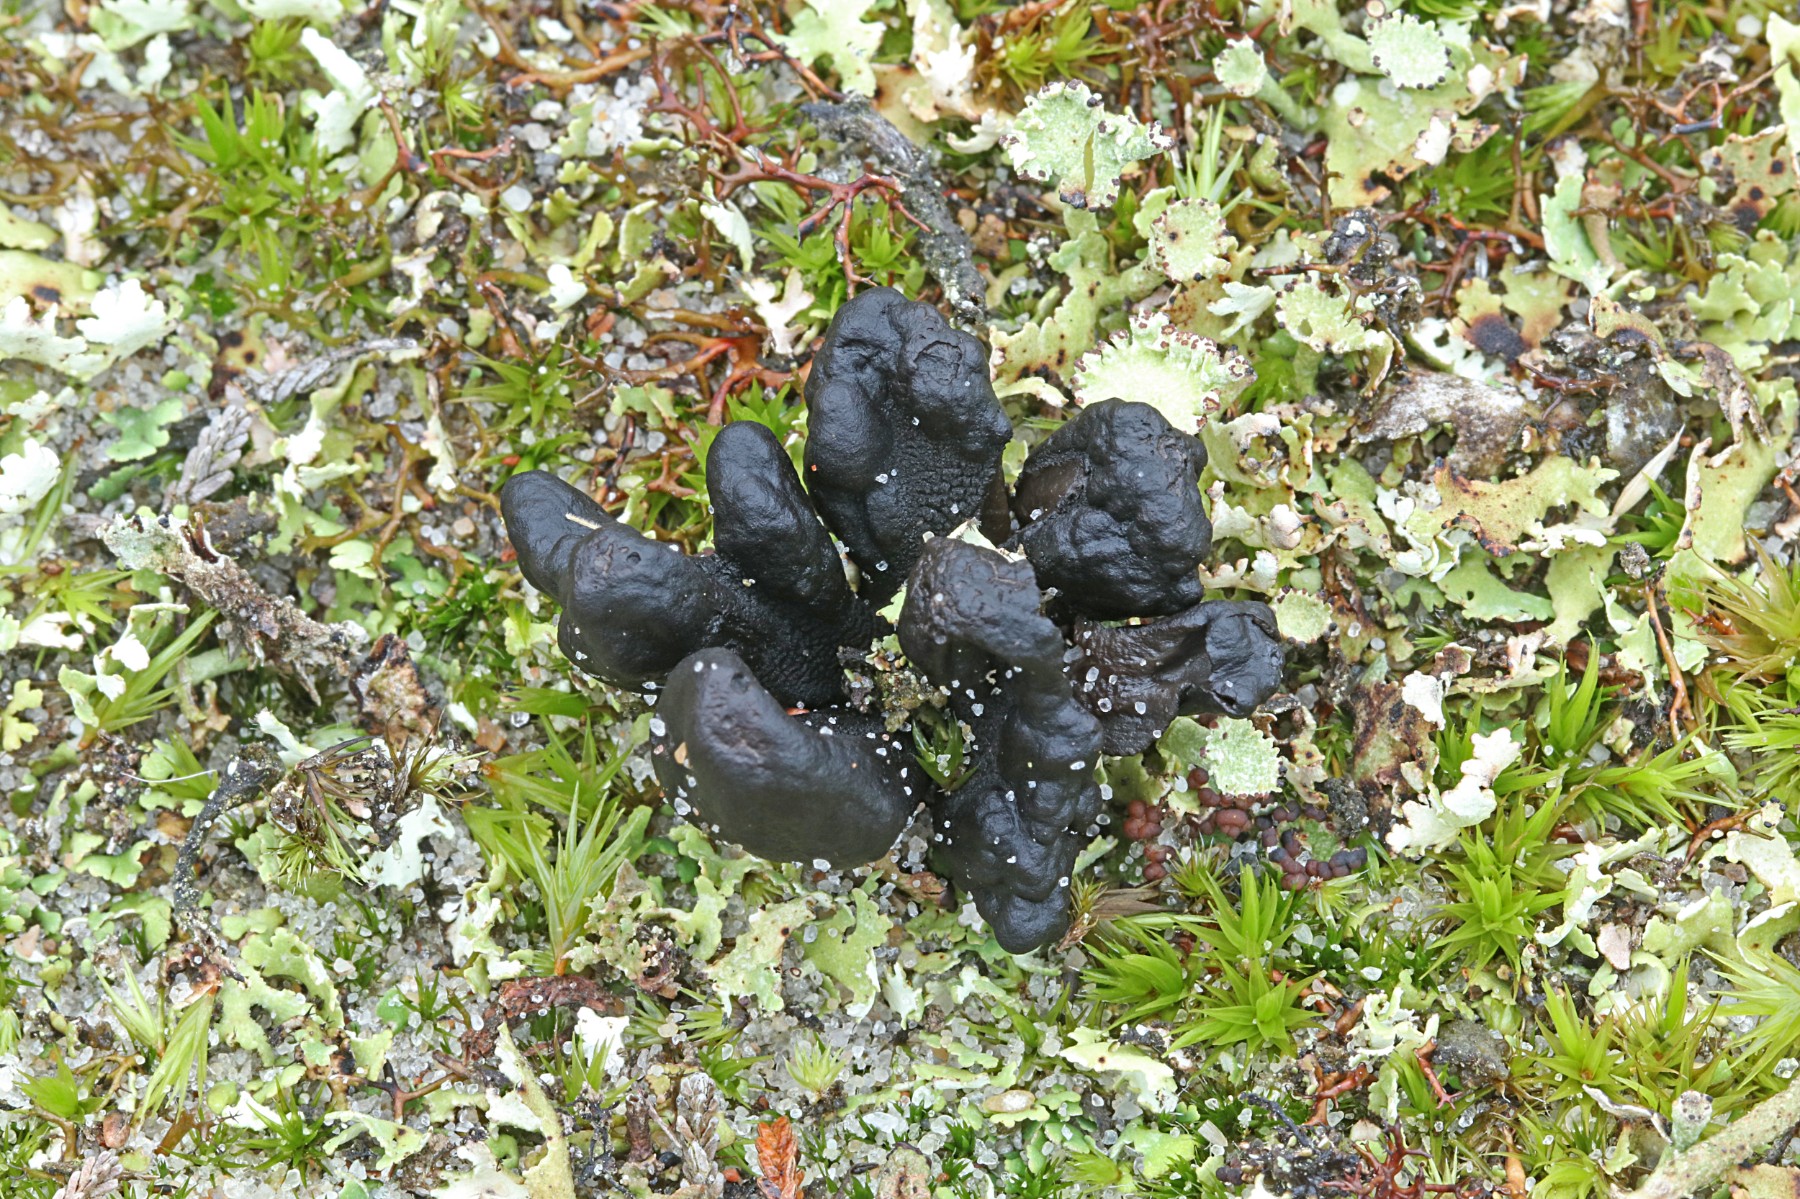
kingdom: Fungi
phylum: Ascomycota
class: Geoglossomycetes
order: Geoglossales
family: Geoglossaceae
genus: Sabuloglossum
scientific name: Sabuloglossum arenarium
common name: klit-jordtunge
